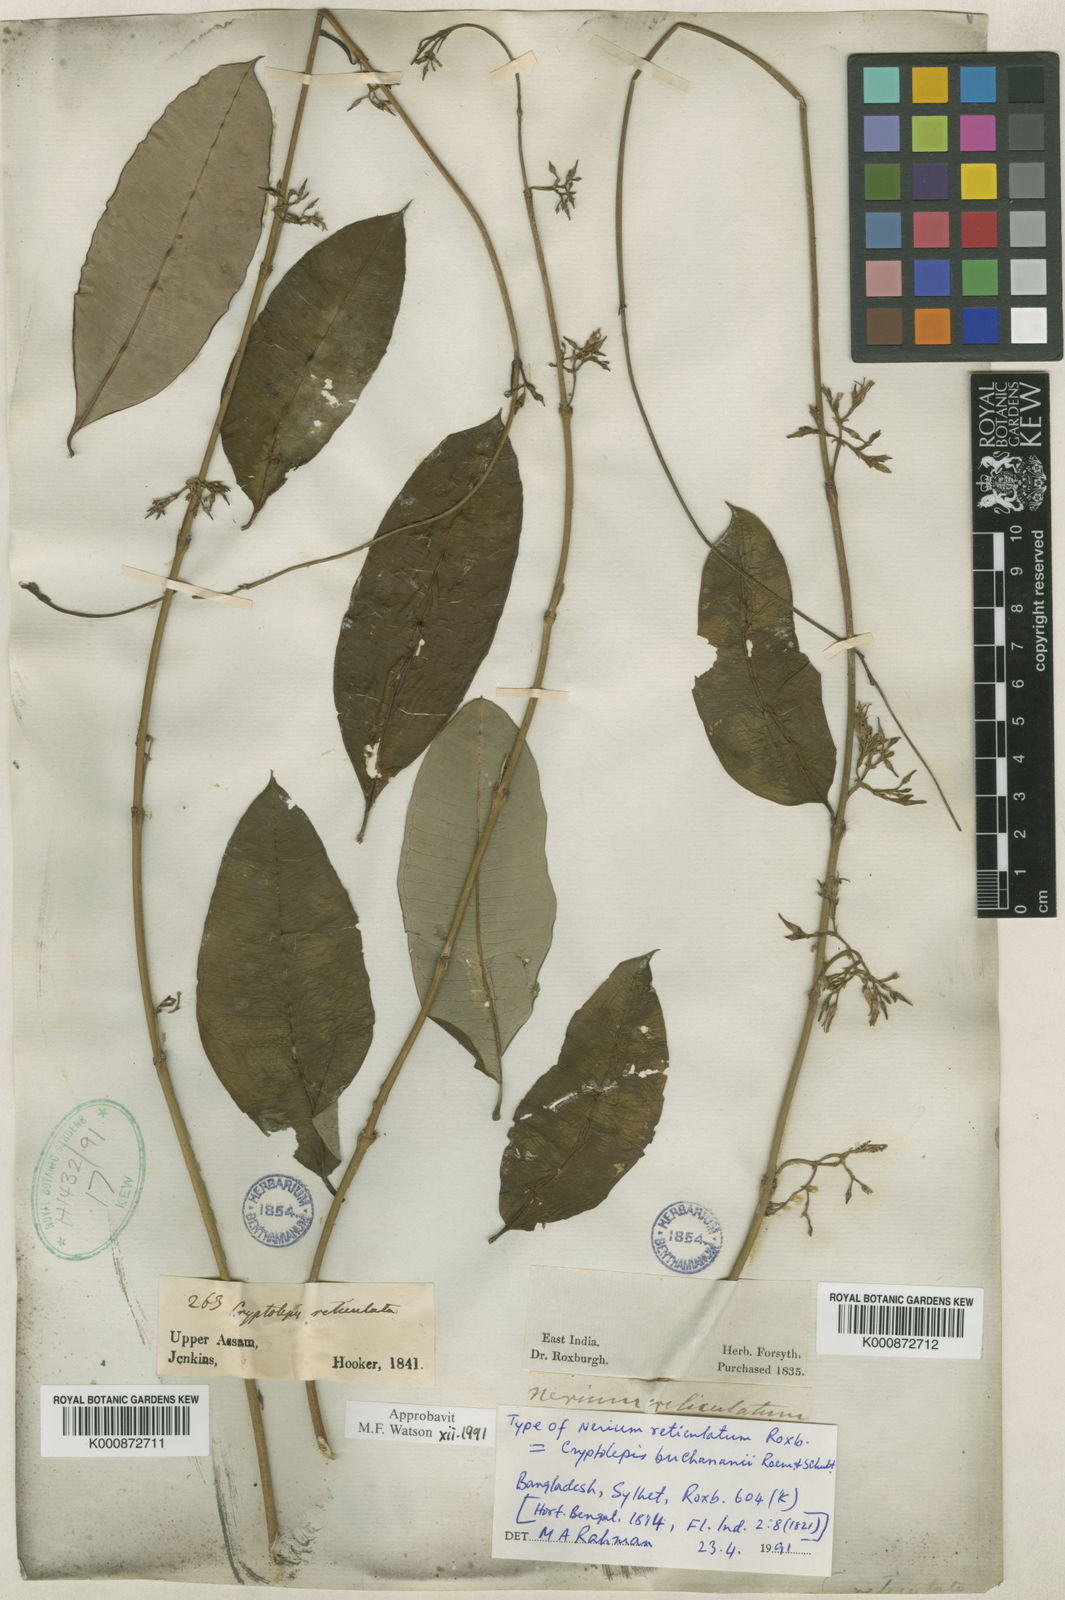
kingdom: Plantae
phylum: Tracheophyta
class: Magnoliopsida
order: Gentianales
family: Apocynaceae
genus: Cryptolepis
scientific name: Cryptolepis buchananii
